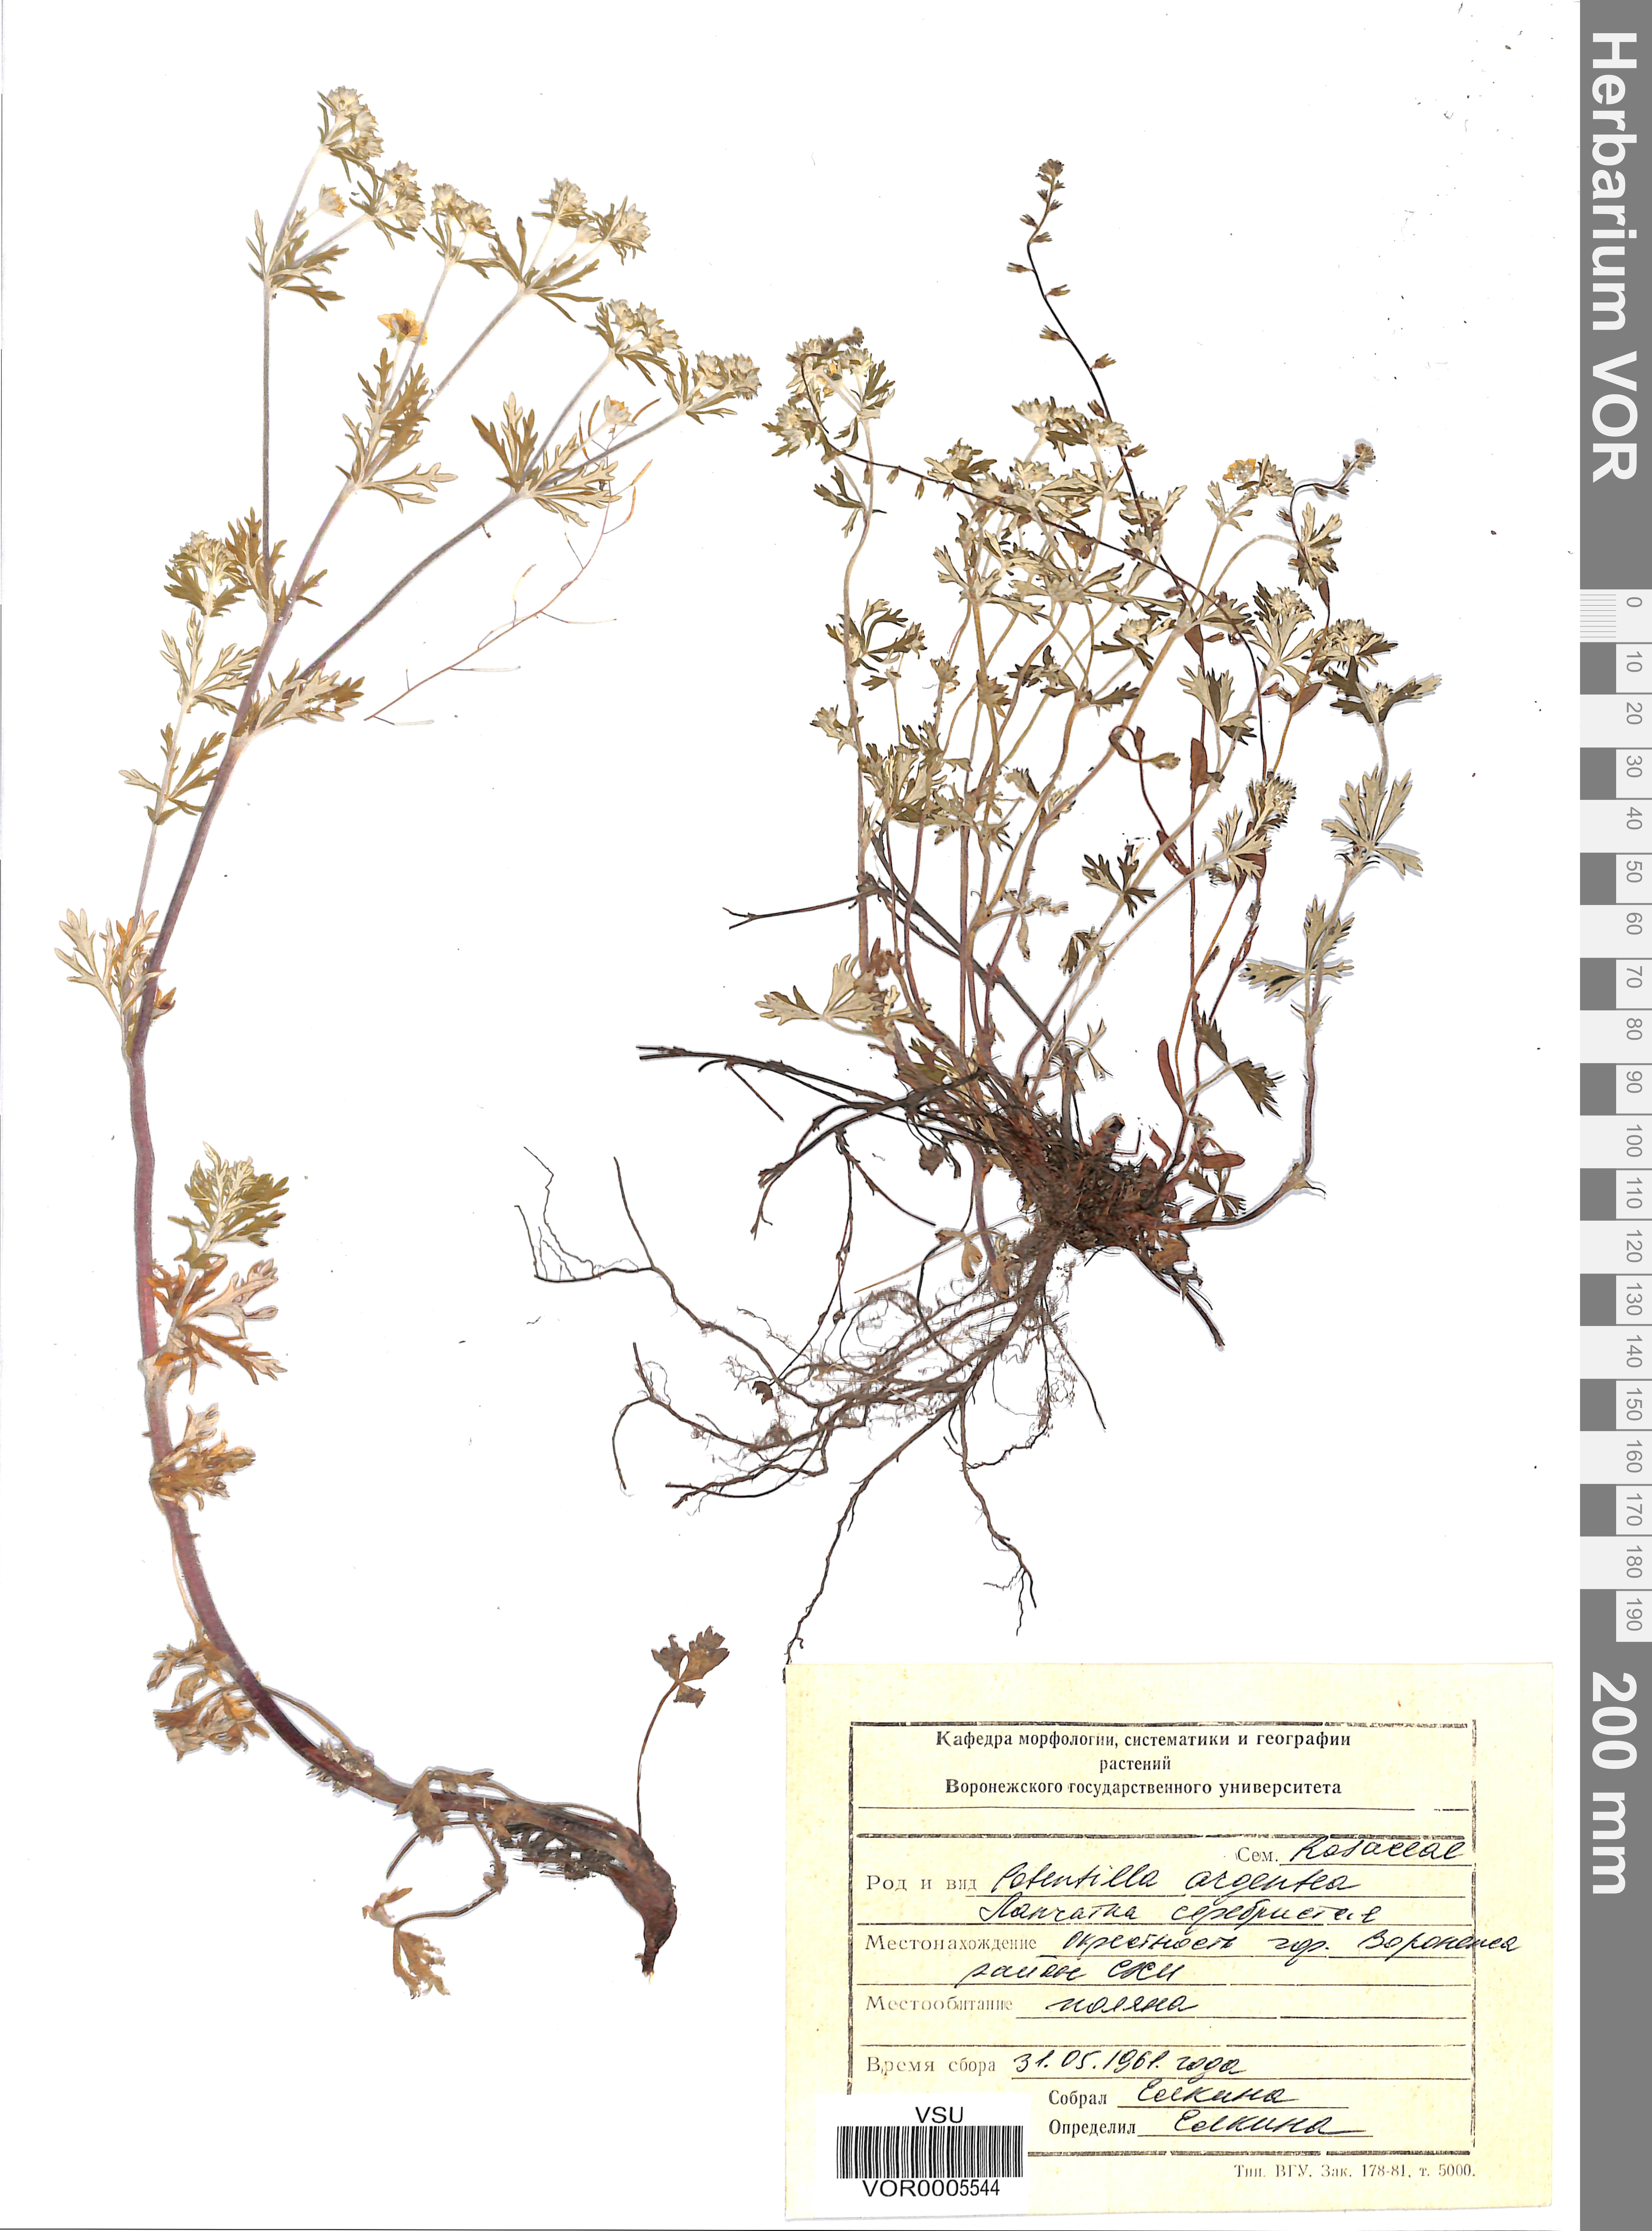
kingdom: Plantae
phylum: Tracheophyta
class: Magnoliopsida
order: Rosales
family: Rosaceae
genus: Potentilla
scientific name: Potentilla argentea
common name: Hoary cinquefoil
